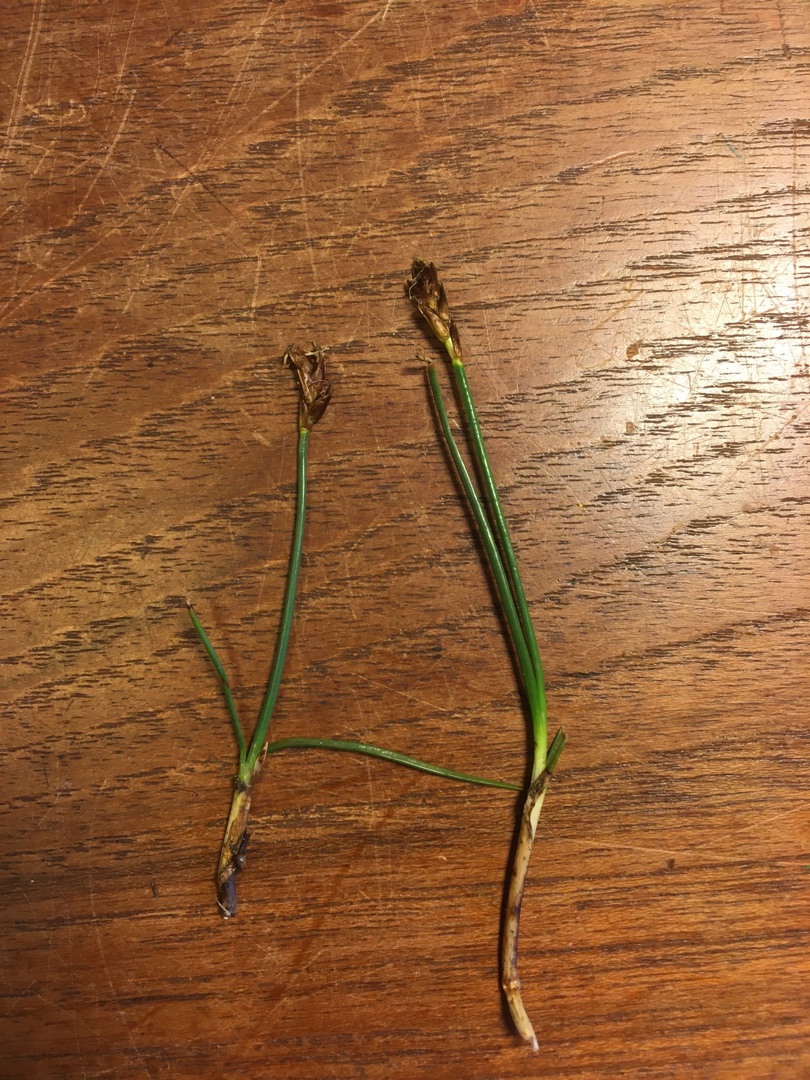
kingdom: Plantae
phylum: Tracheophyta
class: Liliopsida
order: Poales
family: Cyperaceae
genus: Blysmus
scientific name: Blysmus rufus
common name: Rødbrun kogleaks
